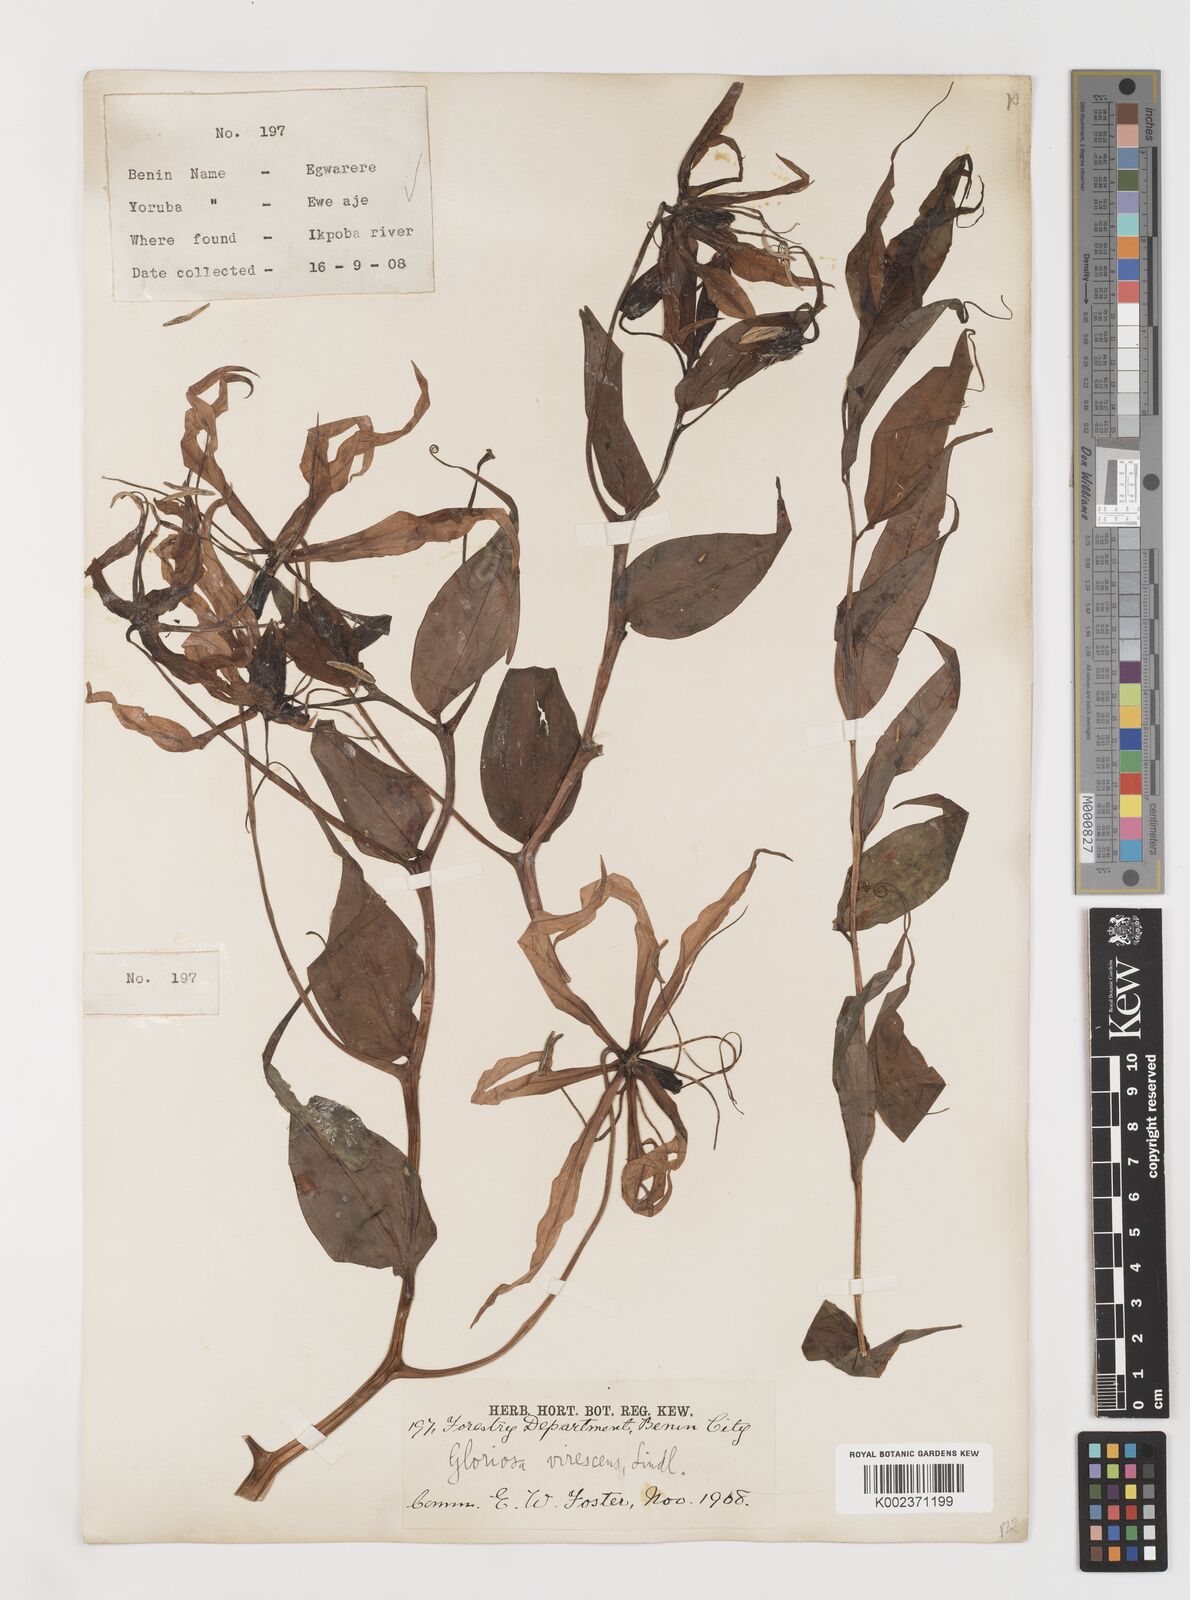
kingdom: Plantae
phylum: Tracheophyta
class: Liliopsida
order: Liliales
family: Colchicaceae
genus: Gloriosa
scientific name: Gloriosa simplex
